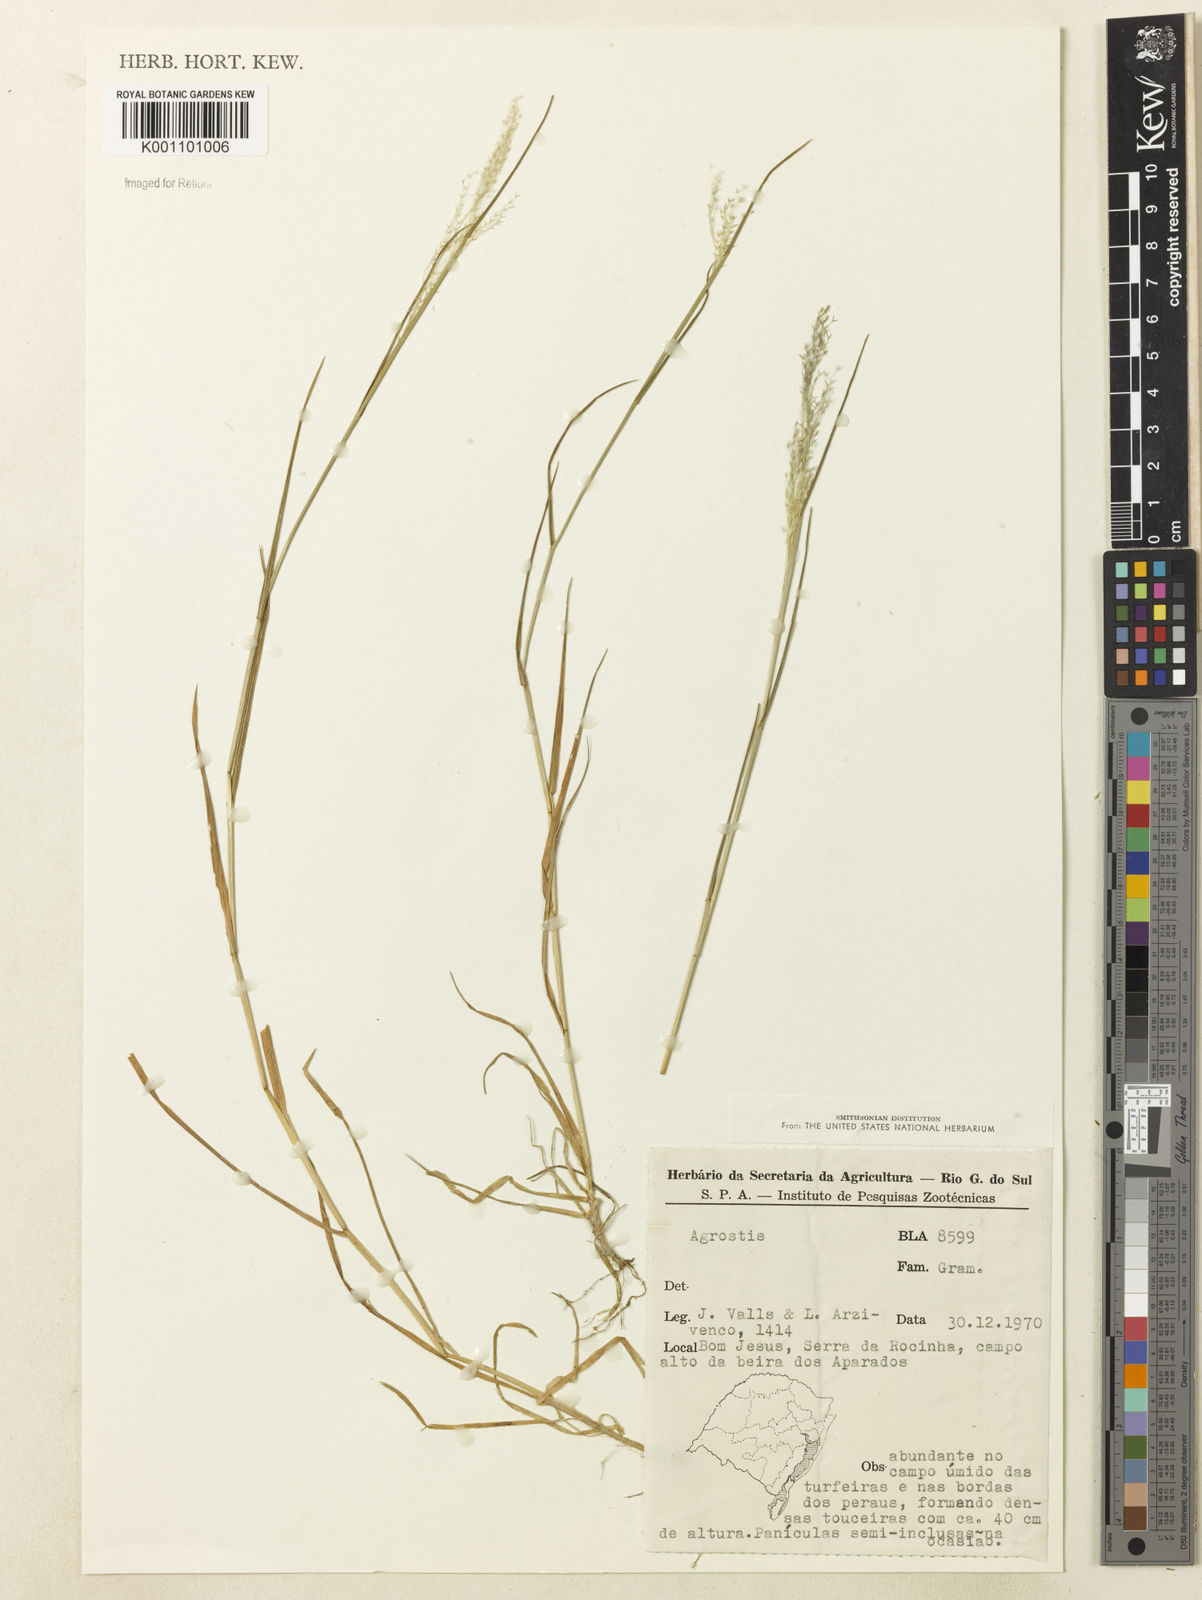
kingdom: Plantae
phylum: Tracheophyta
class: Liliopsida
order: Poales
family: Poaceae
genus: Agrostis
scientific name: Agrostis
